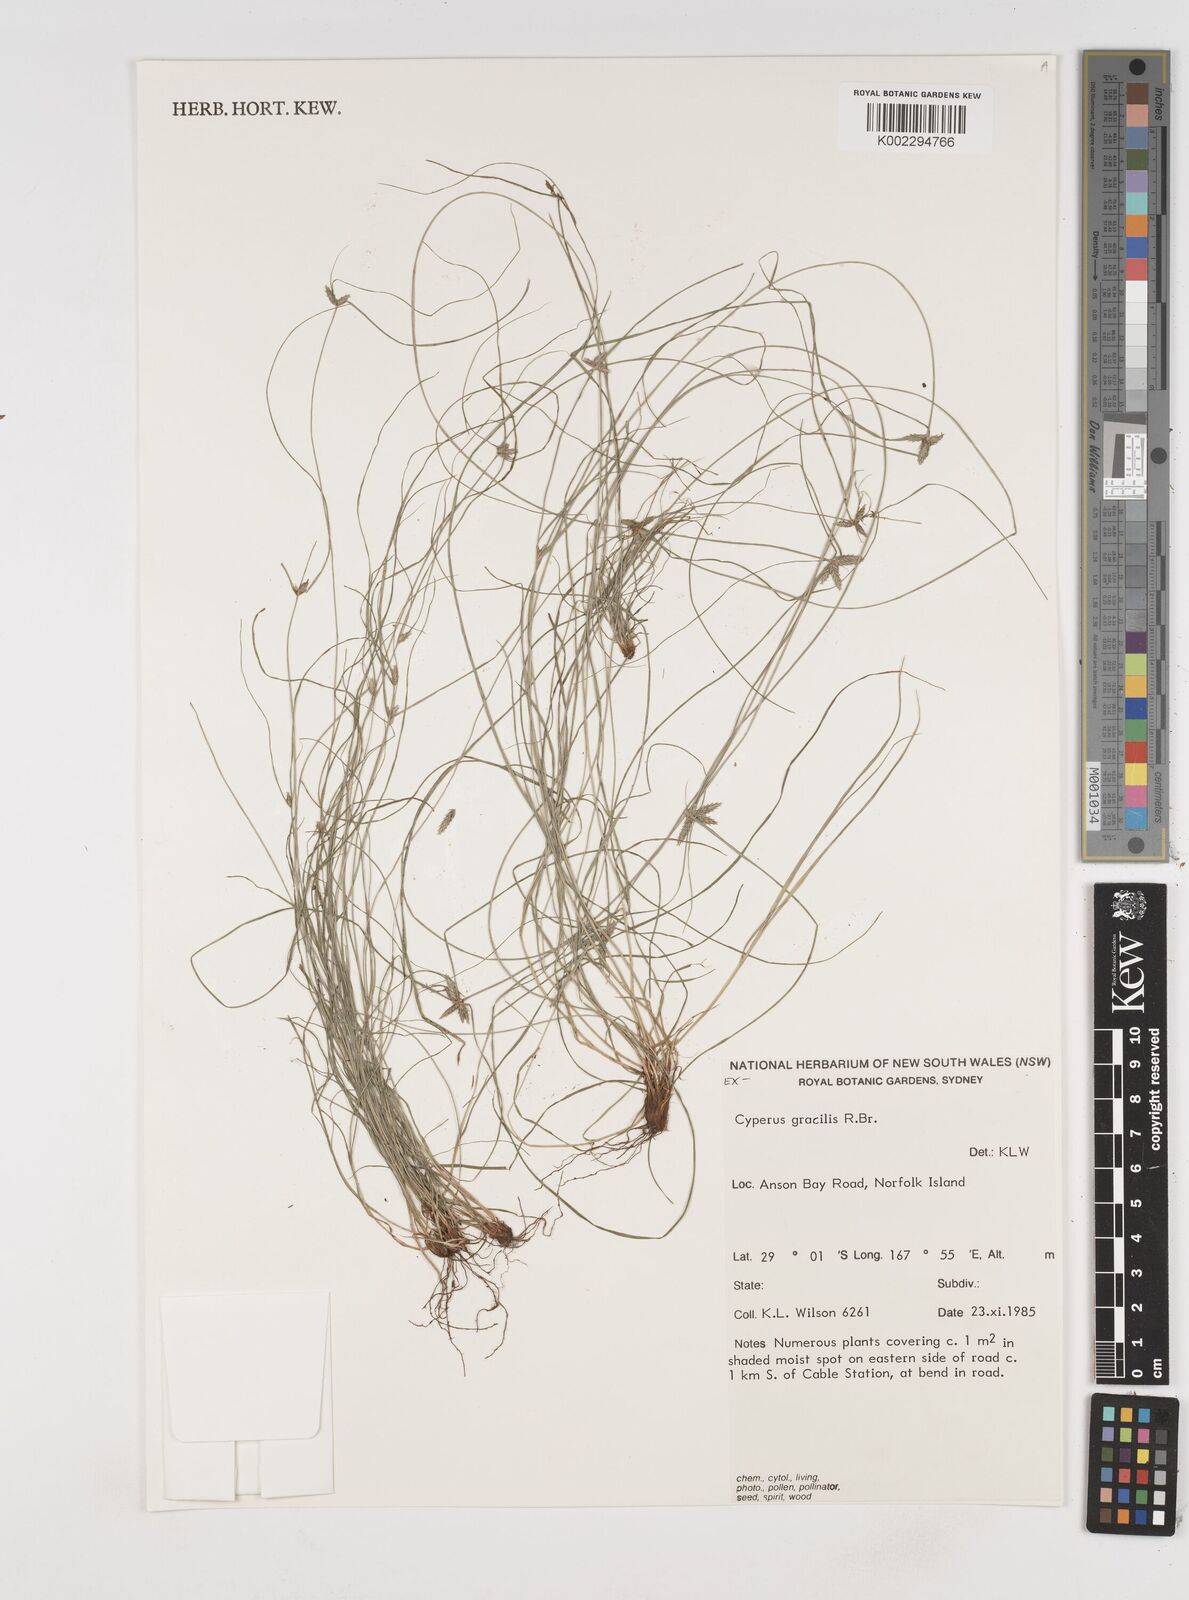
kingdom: Plantae
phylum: Tracheophyta
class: Liliopsida
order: Poales
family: Cyperaceae
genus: Cyperus
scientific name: Cyperus gracilis
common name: Slimjim flatsedge
